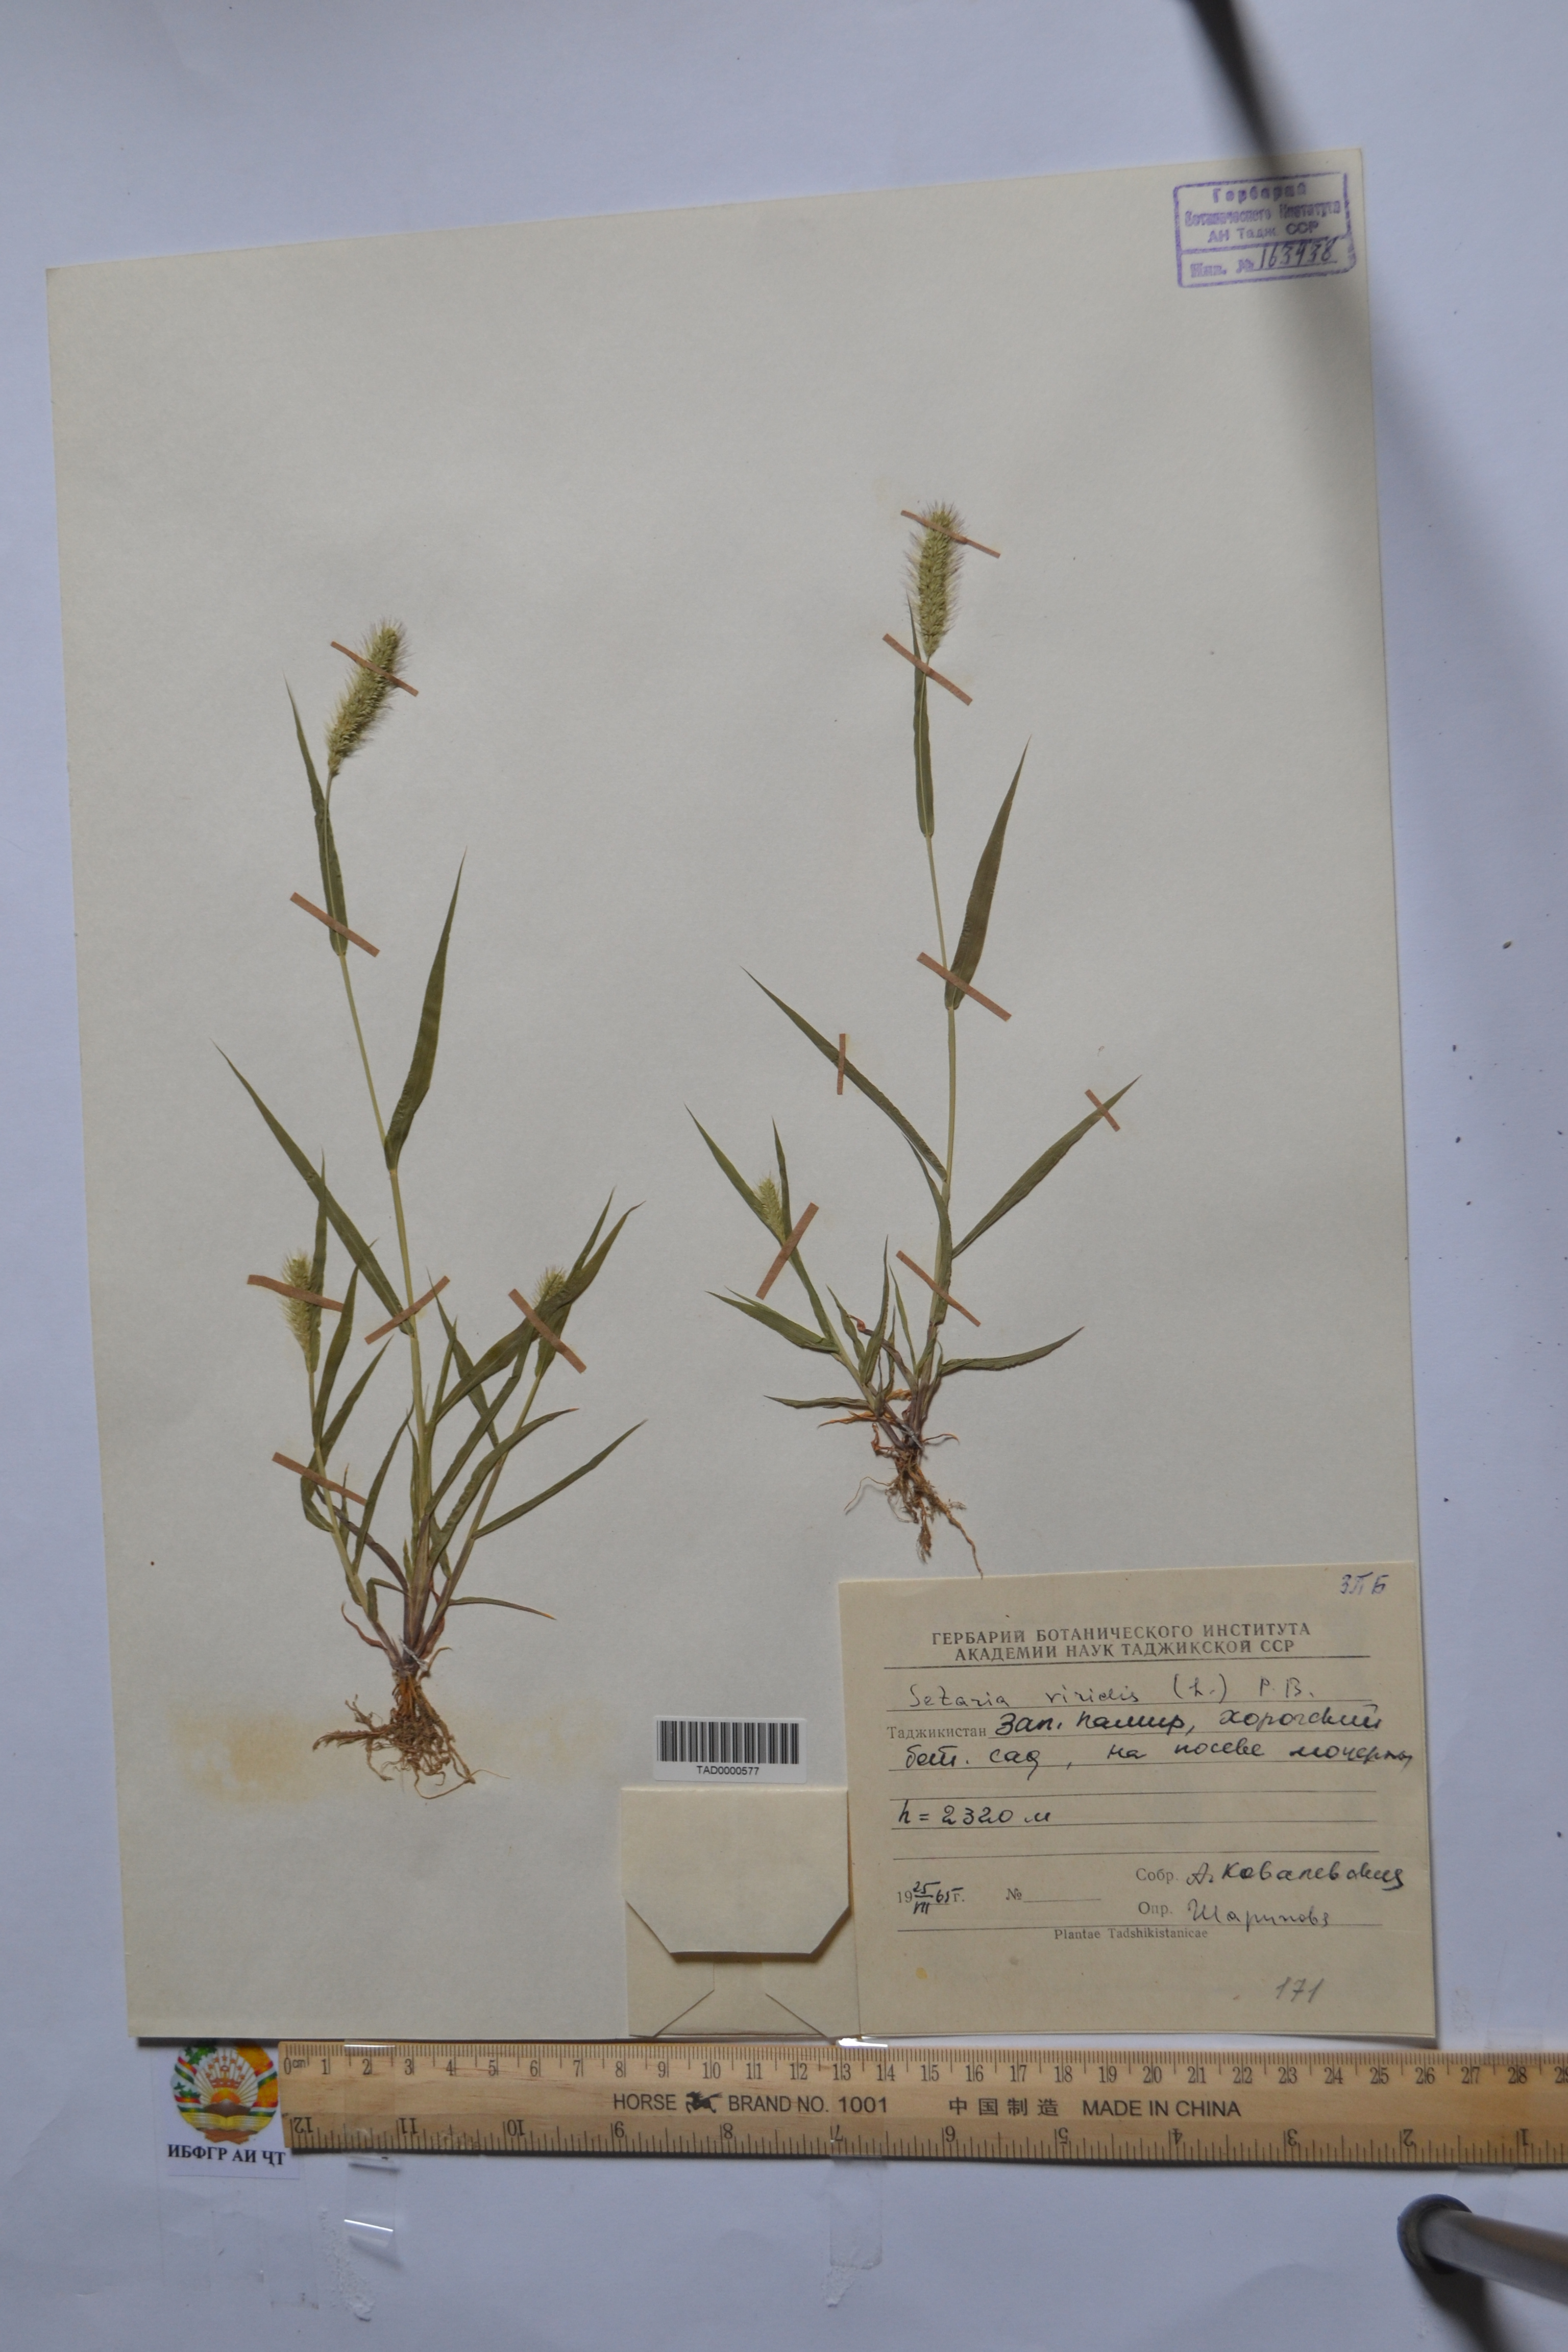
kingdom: Plantae
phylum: Tracheophyta
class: Liliopsida
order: Poales
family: Poaceae
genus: Setaria
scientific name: Setaria viridis
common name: Green bristlegrass
